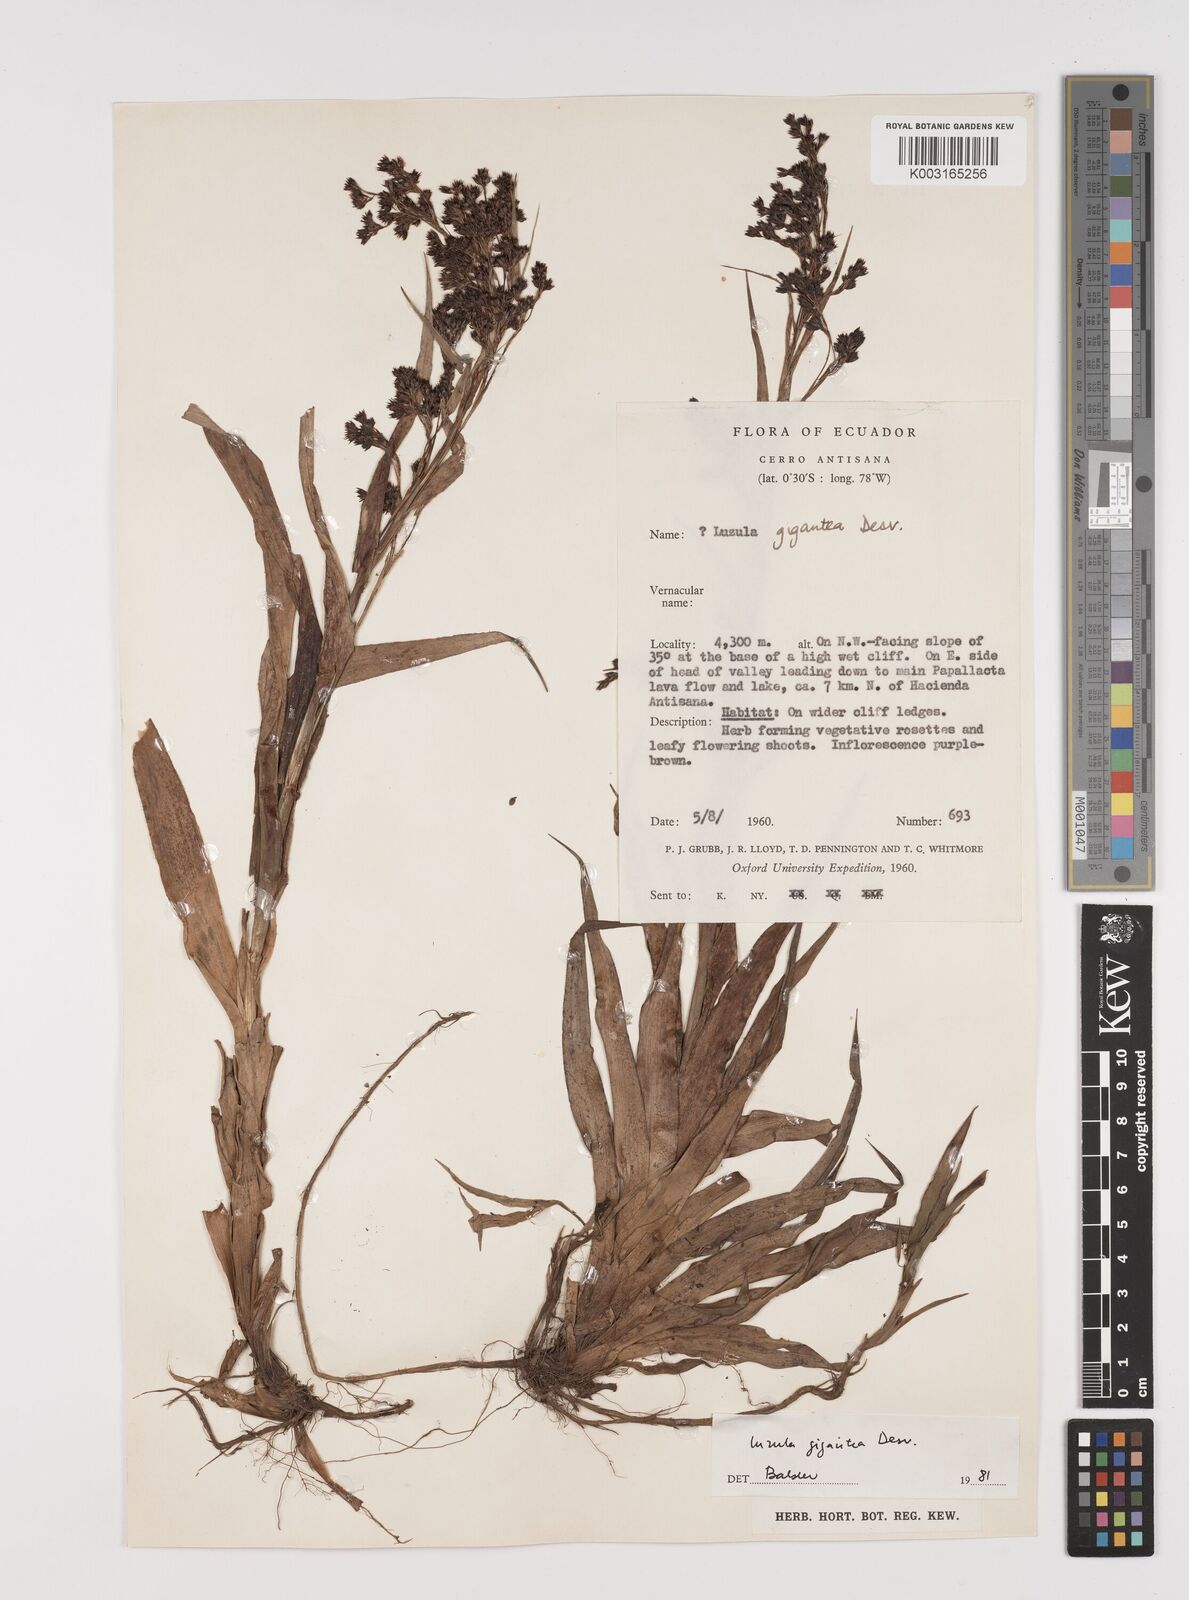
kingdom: Plantae
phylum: Tracheophyta
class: Liliopsida
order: Poales
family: Juncaceae
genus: Luzula
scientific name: Luzula gigantea
